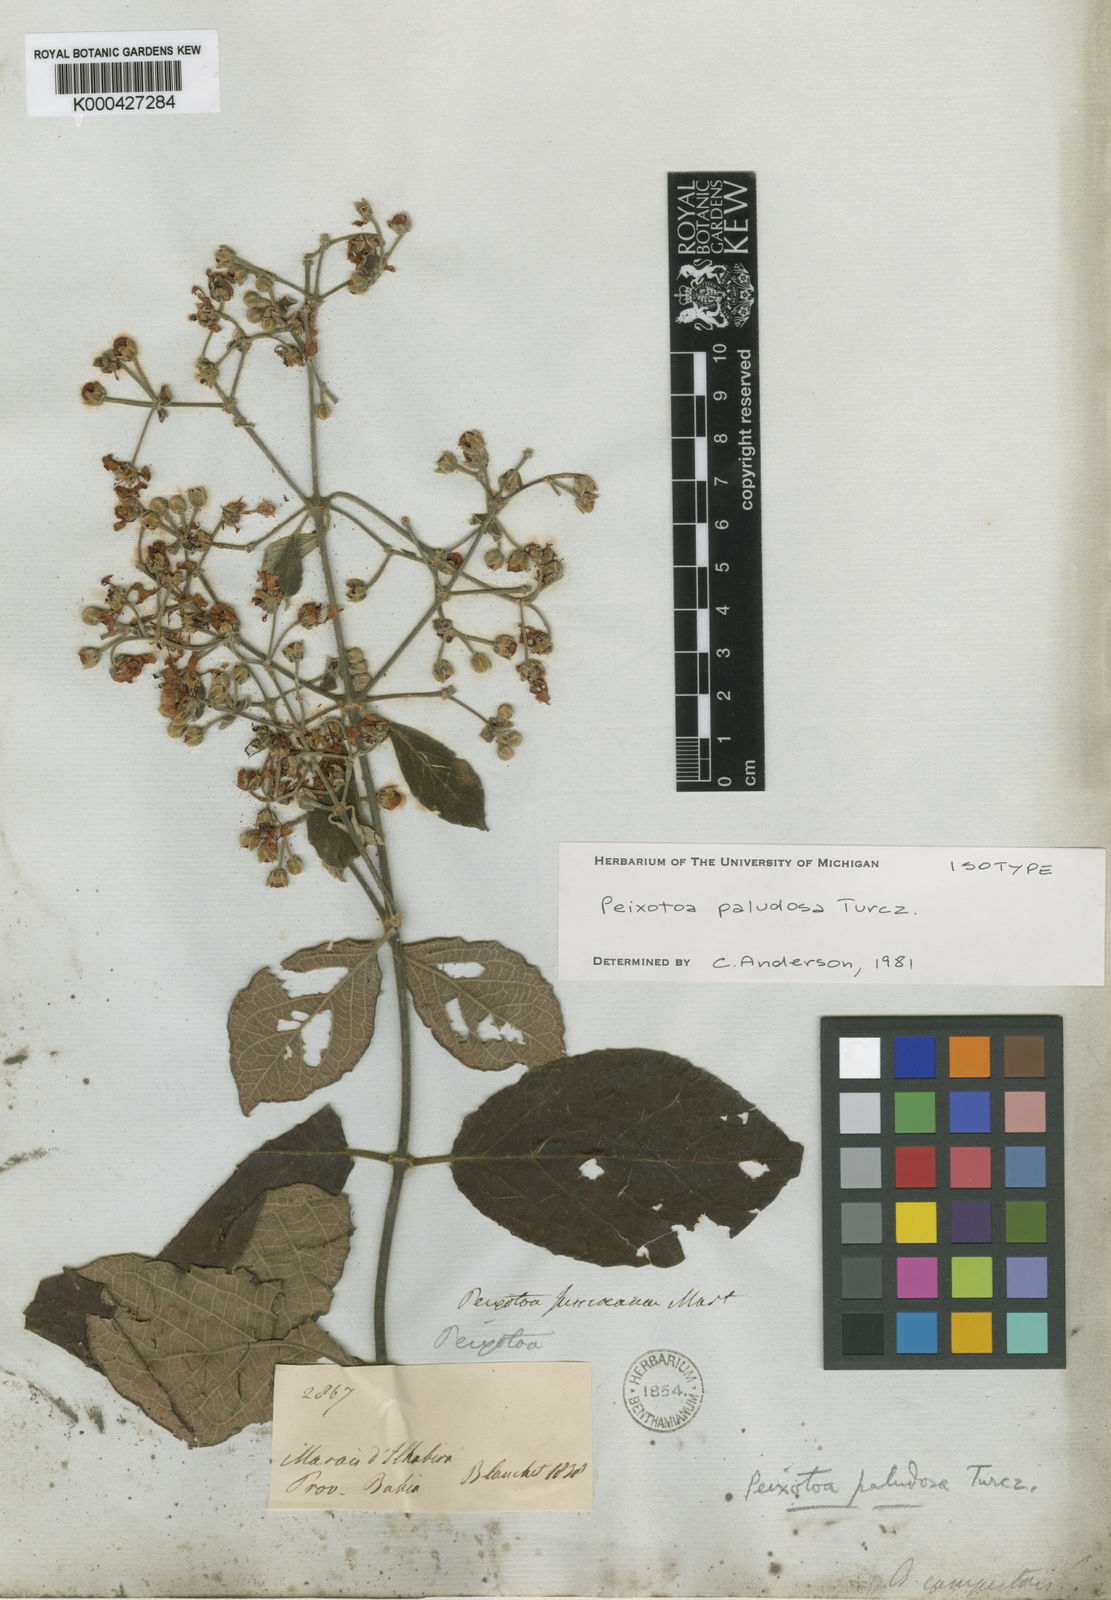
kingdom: Plantae
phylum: Tracheophyta
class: Magnoliopsida
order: Malpighiales
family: Malpighiaceae
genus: Peixotoa
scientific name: Peixotoa paludosa
